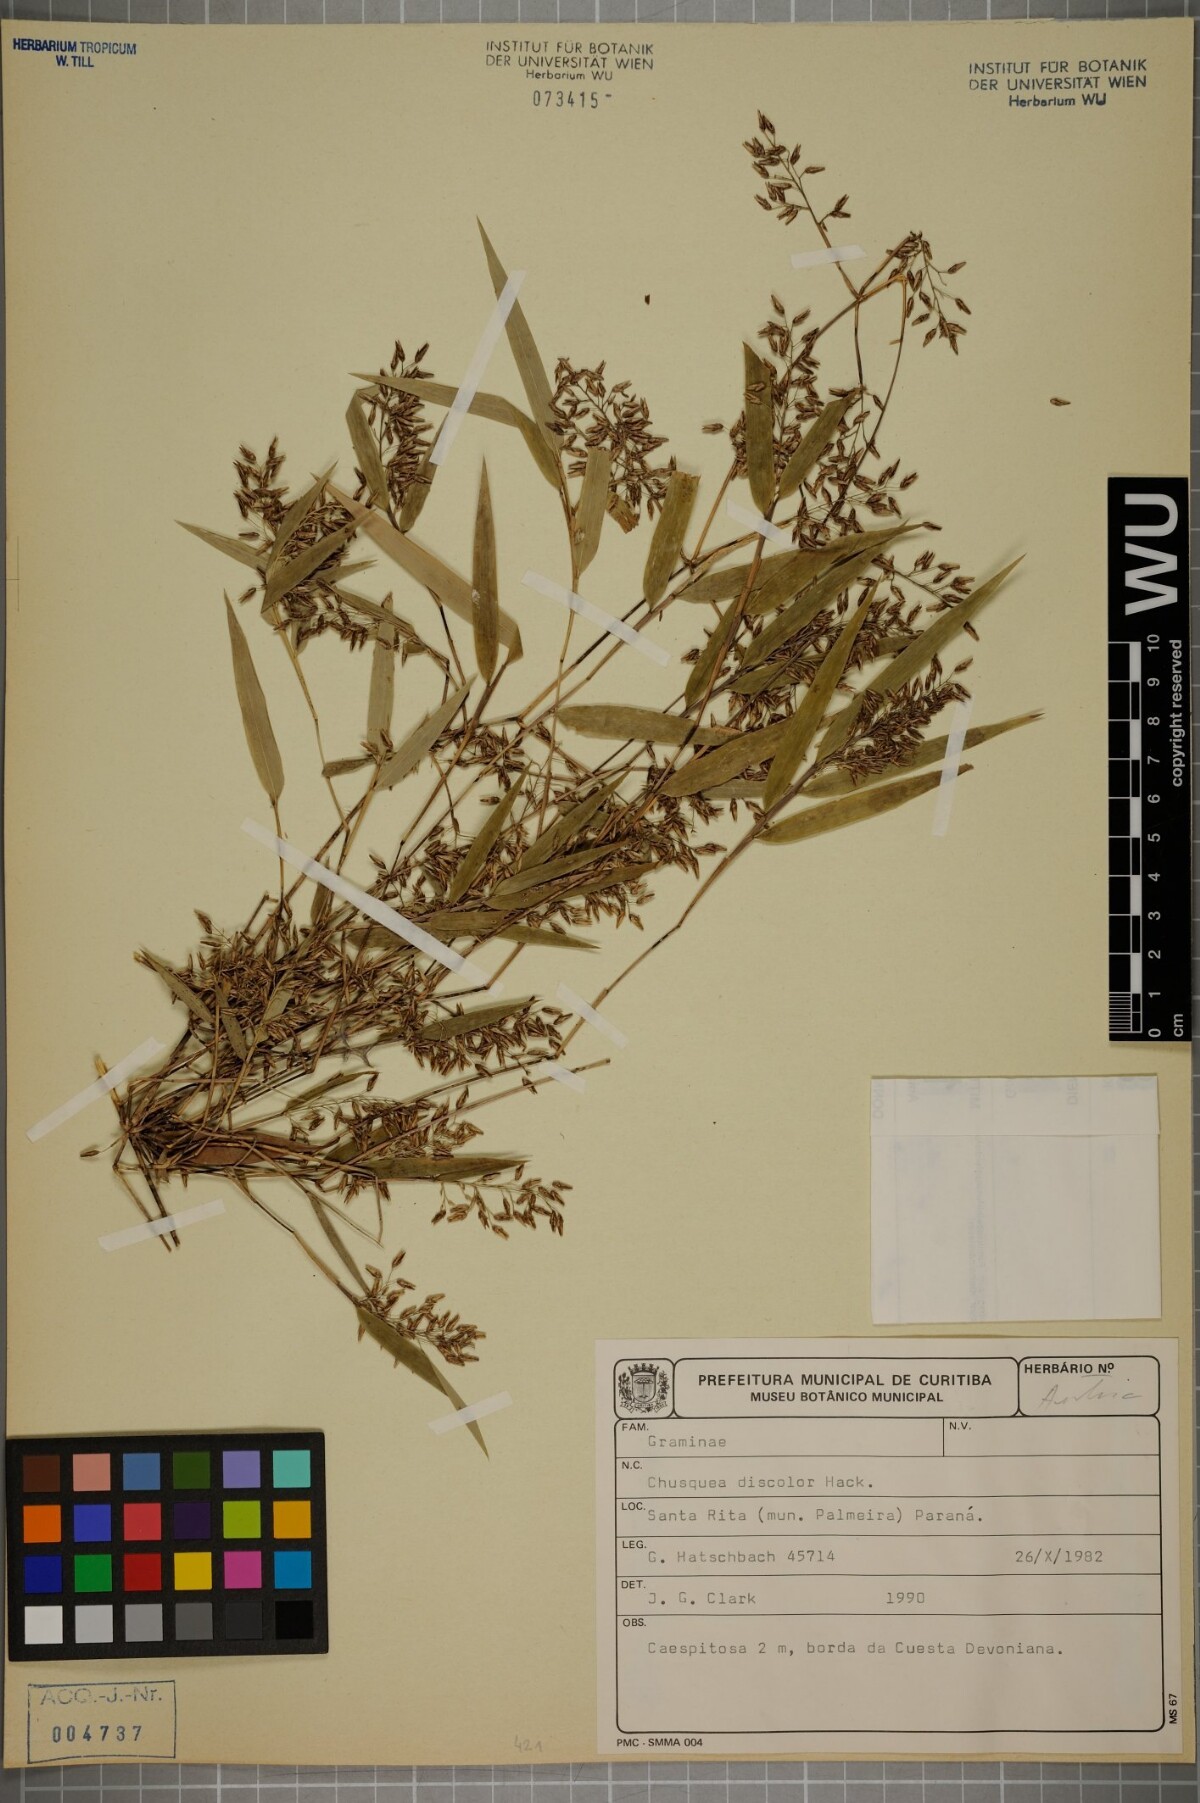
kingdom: Plantae
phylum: Tracheophyta
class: Liliopsida
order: Poales
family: Poaceae
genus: Chusquea
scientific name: Chusquea oligophylla
